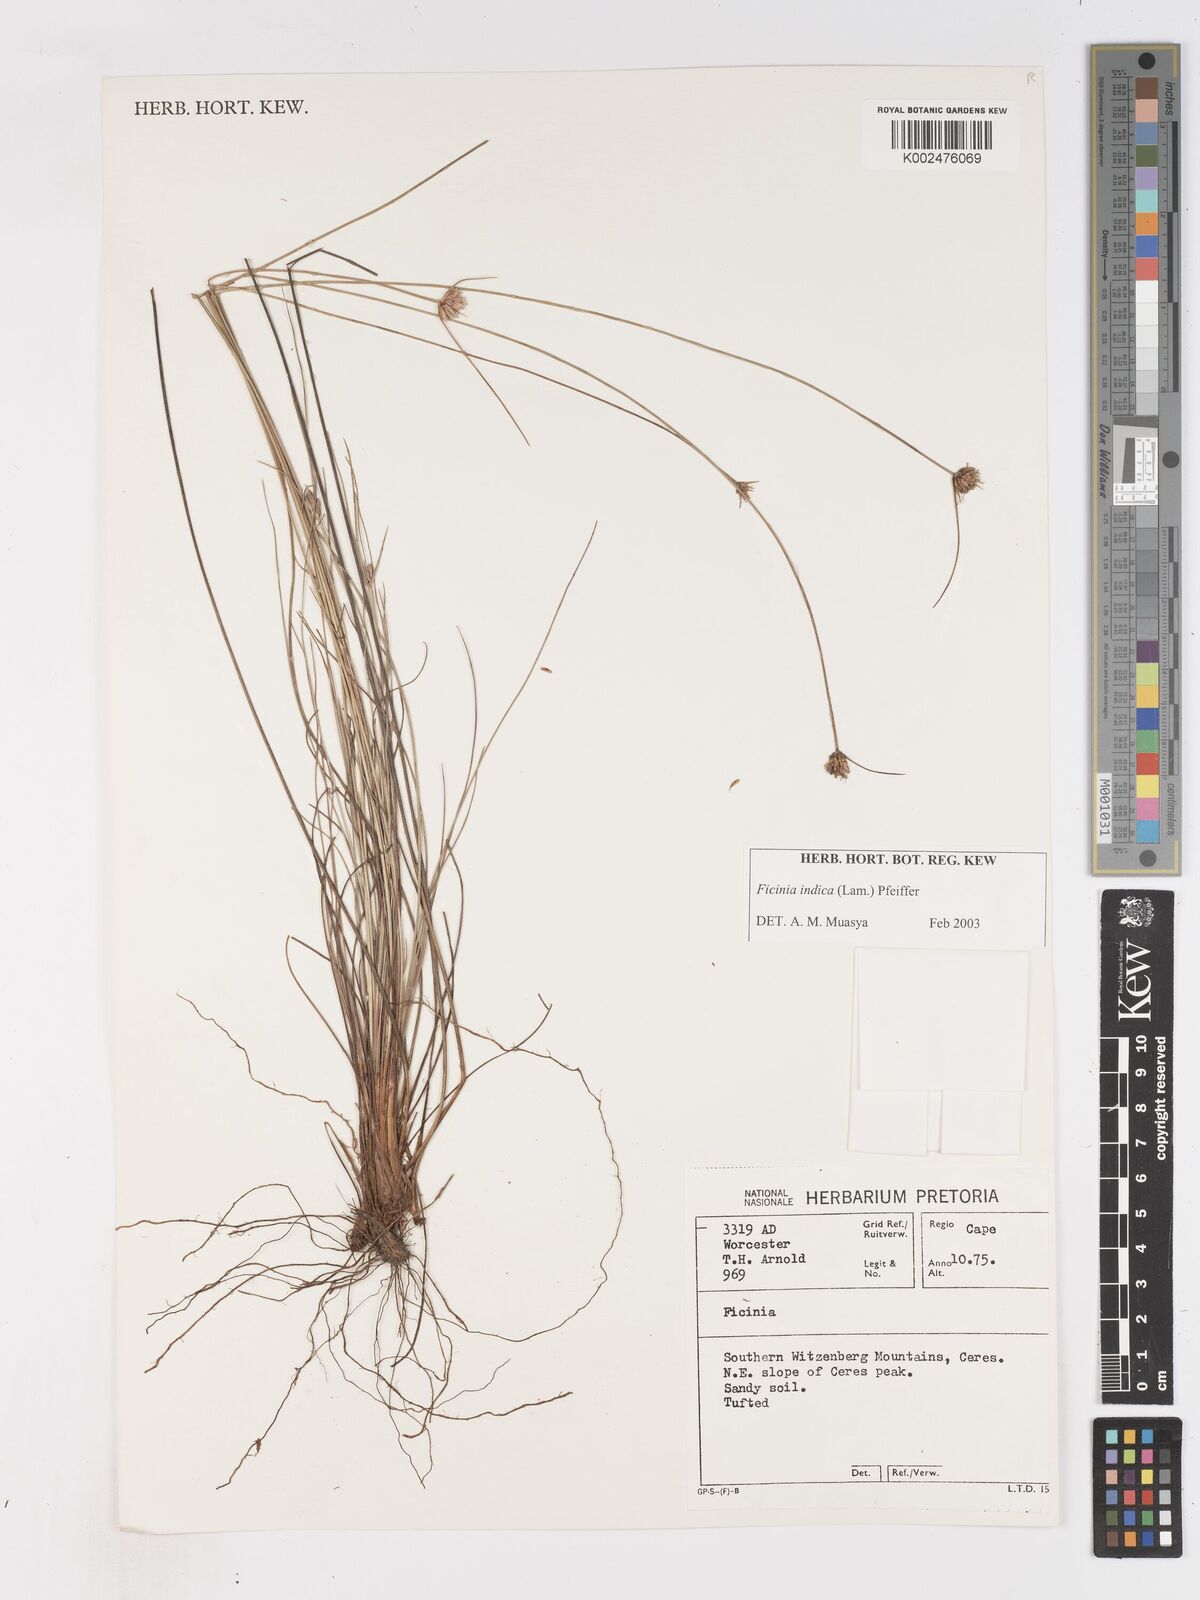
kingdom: Plantae
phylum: Tracheophyta
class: Liliopsida
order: Poales
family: Cyperaceae
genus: Ficinia
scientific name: Ficinia indica
